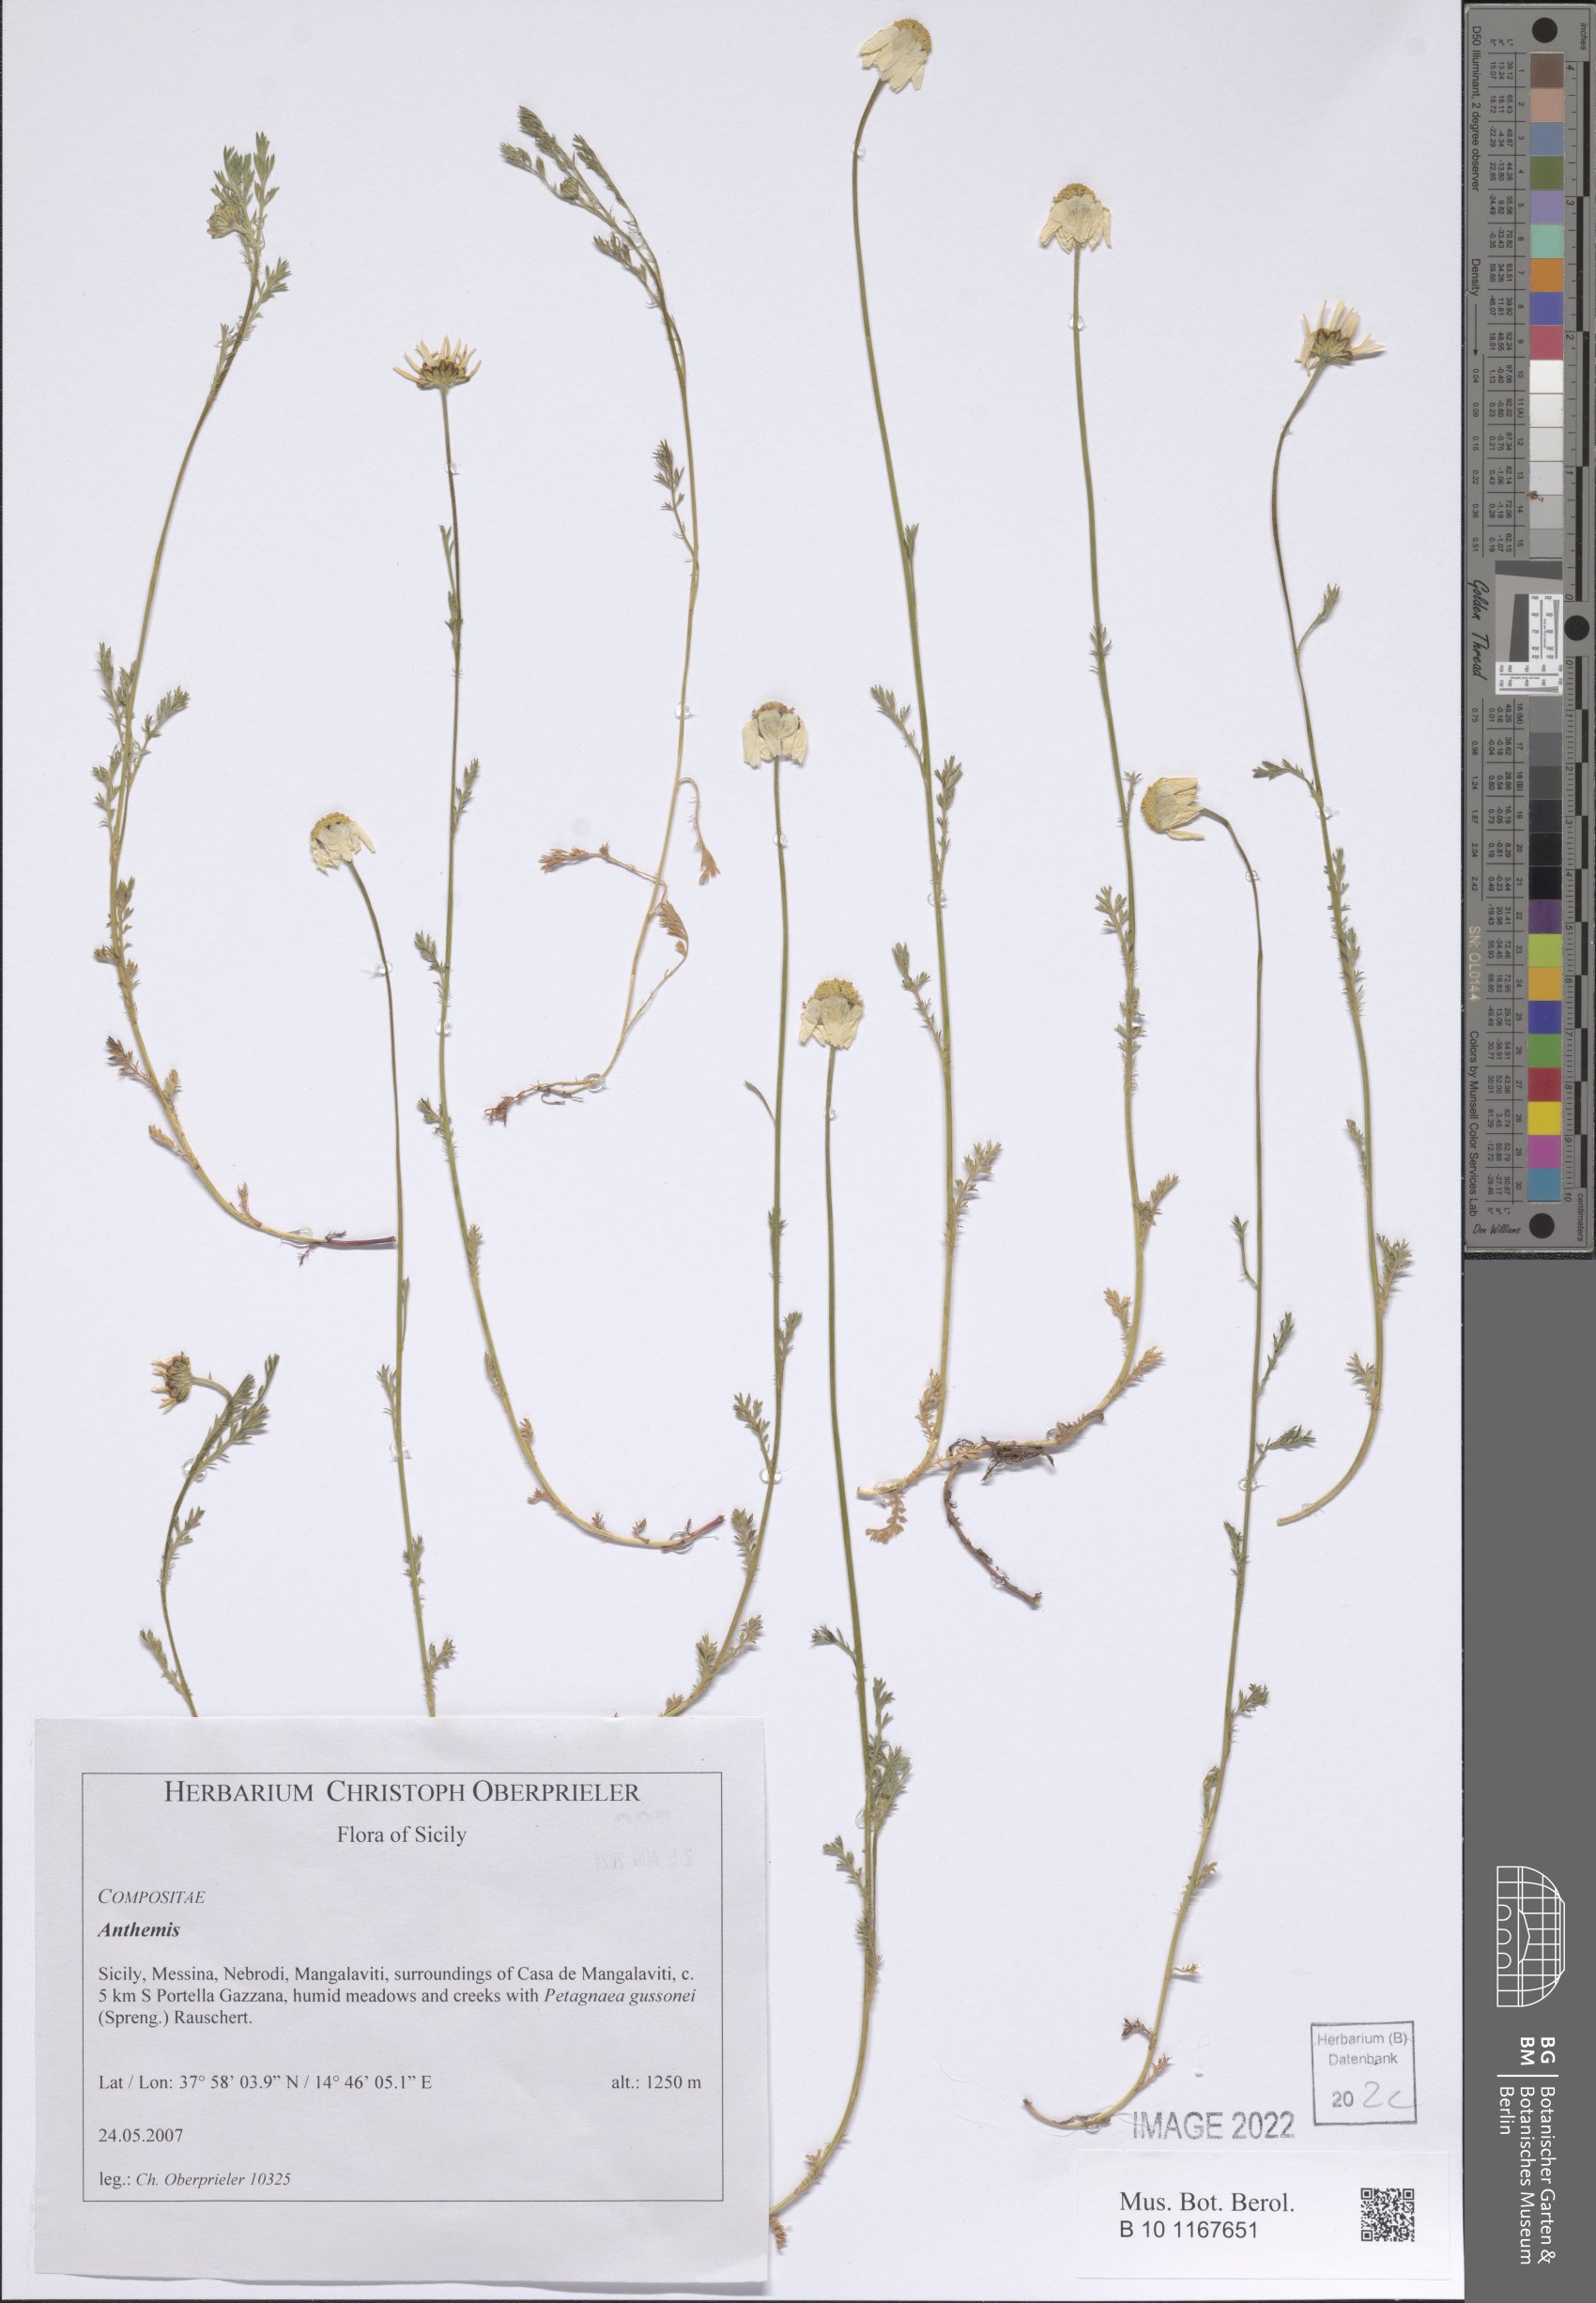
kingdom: Plantae
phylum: Tracheophyta
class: Magnoliopsida
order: Asterales
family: Asteraceae
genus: Anthemis
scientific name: Anthemis
